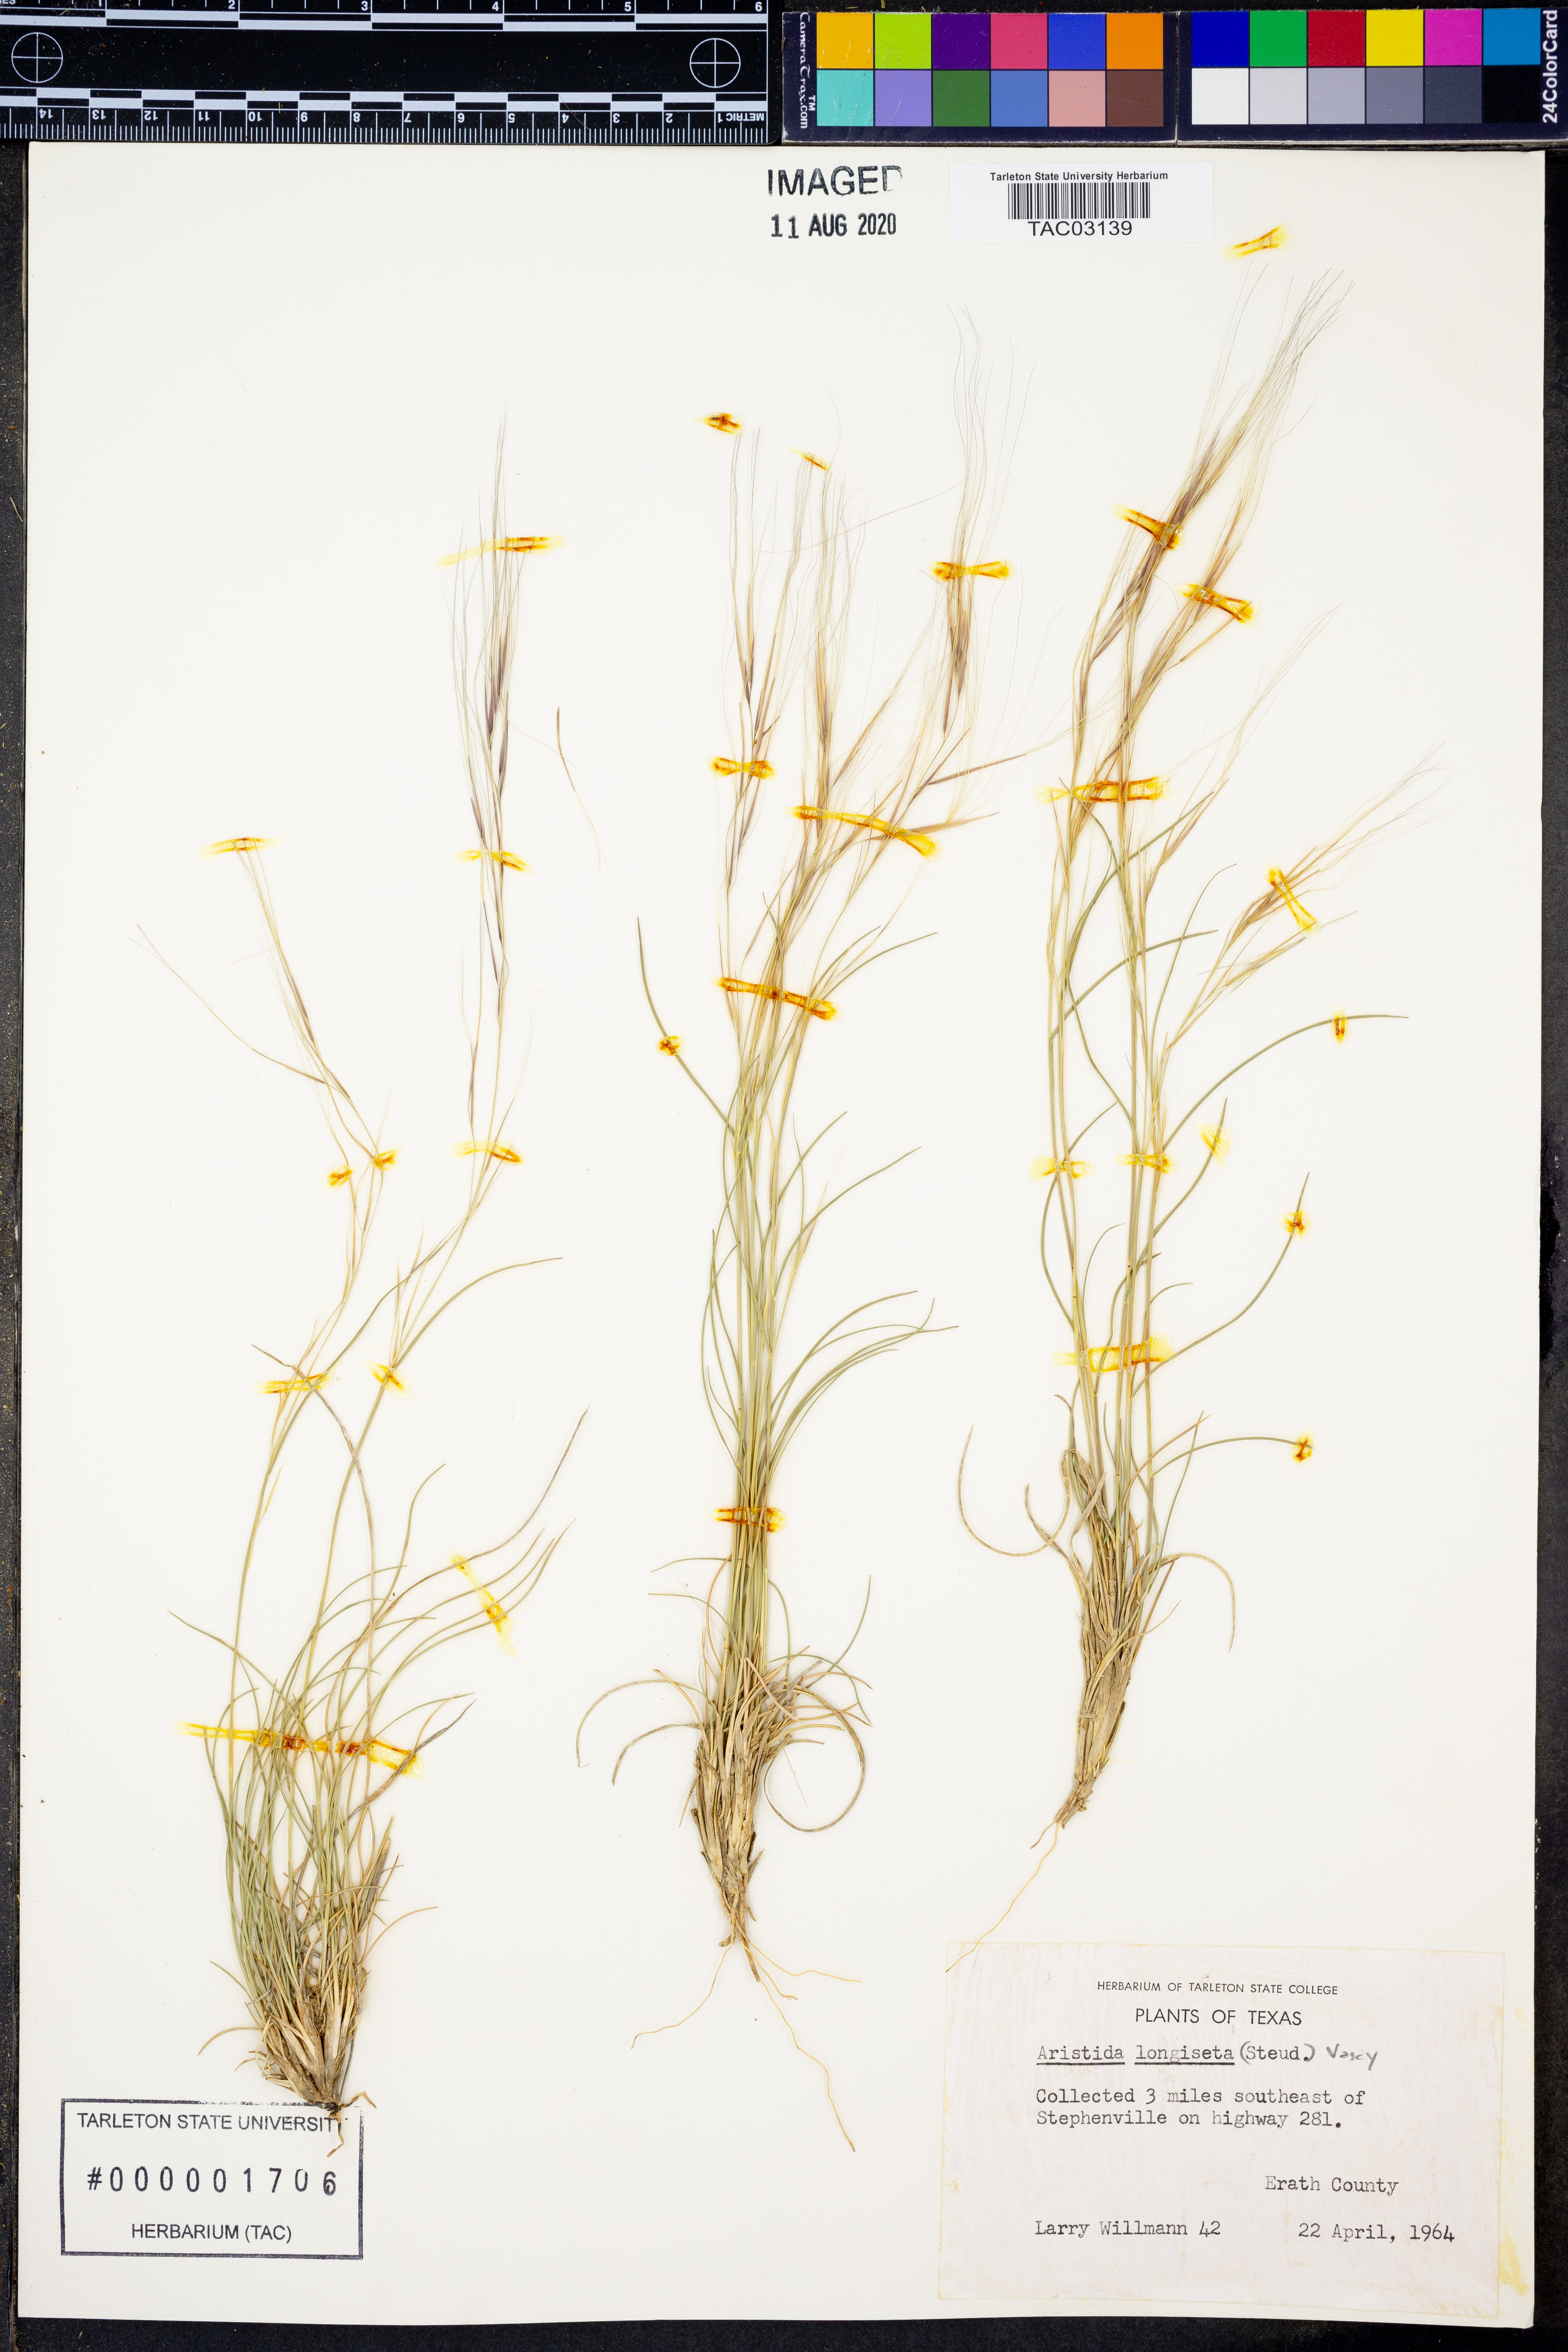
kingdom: Plantae
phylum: Tracheophyta
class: Liliopsida
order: Poales
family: Poaceae
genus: Aristida
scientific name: Aristida longiseta
